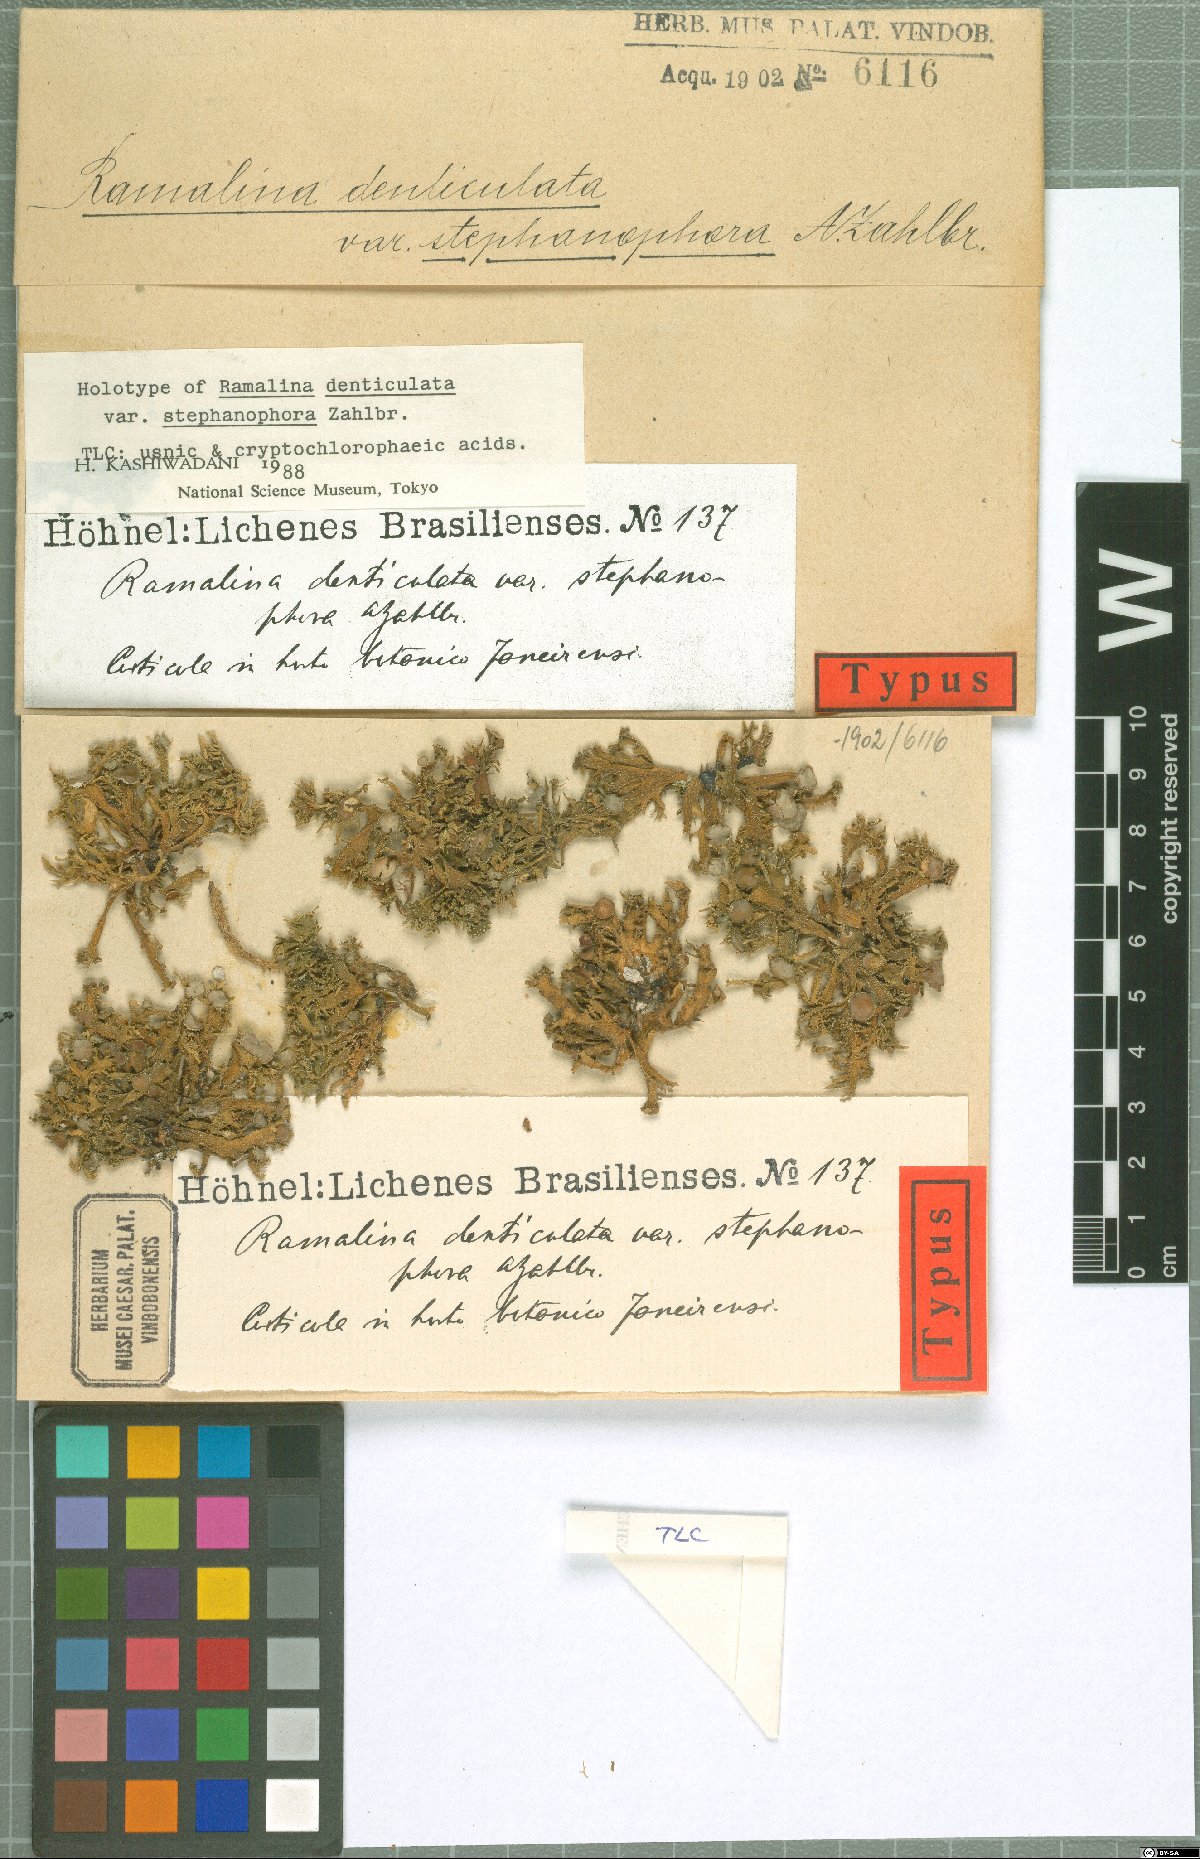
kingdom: Fungi
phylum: Ascomycota
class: Lecanoromycetes
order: Lecanorales
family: Ramalinaceae
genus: Ramalina
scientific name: Ramalina aspera
